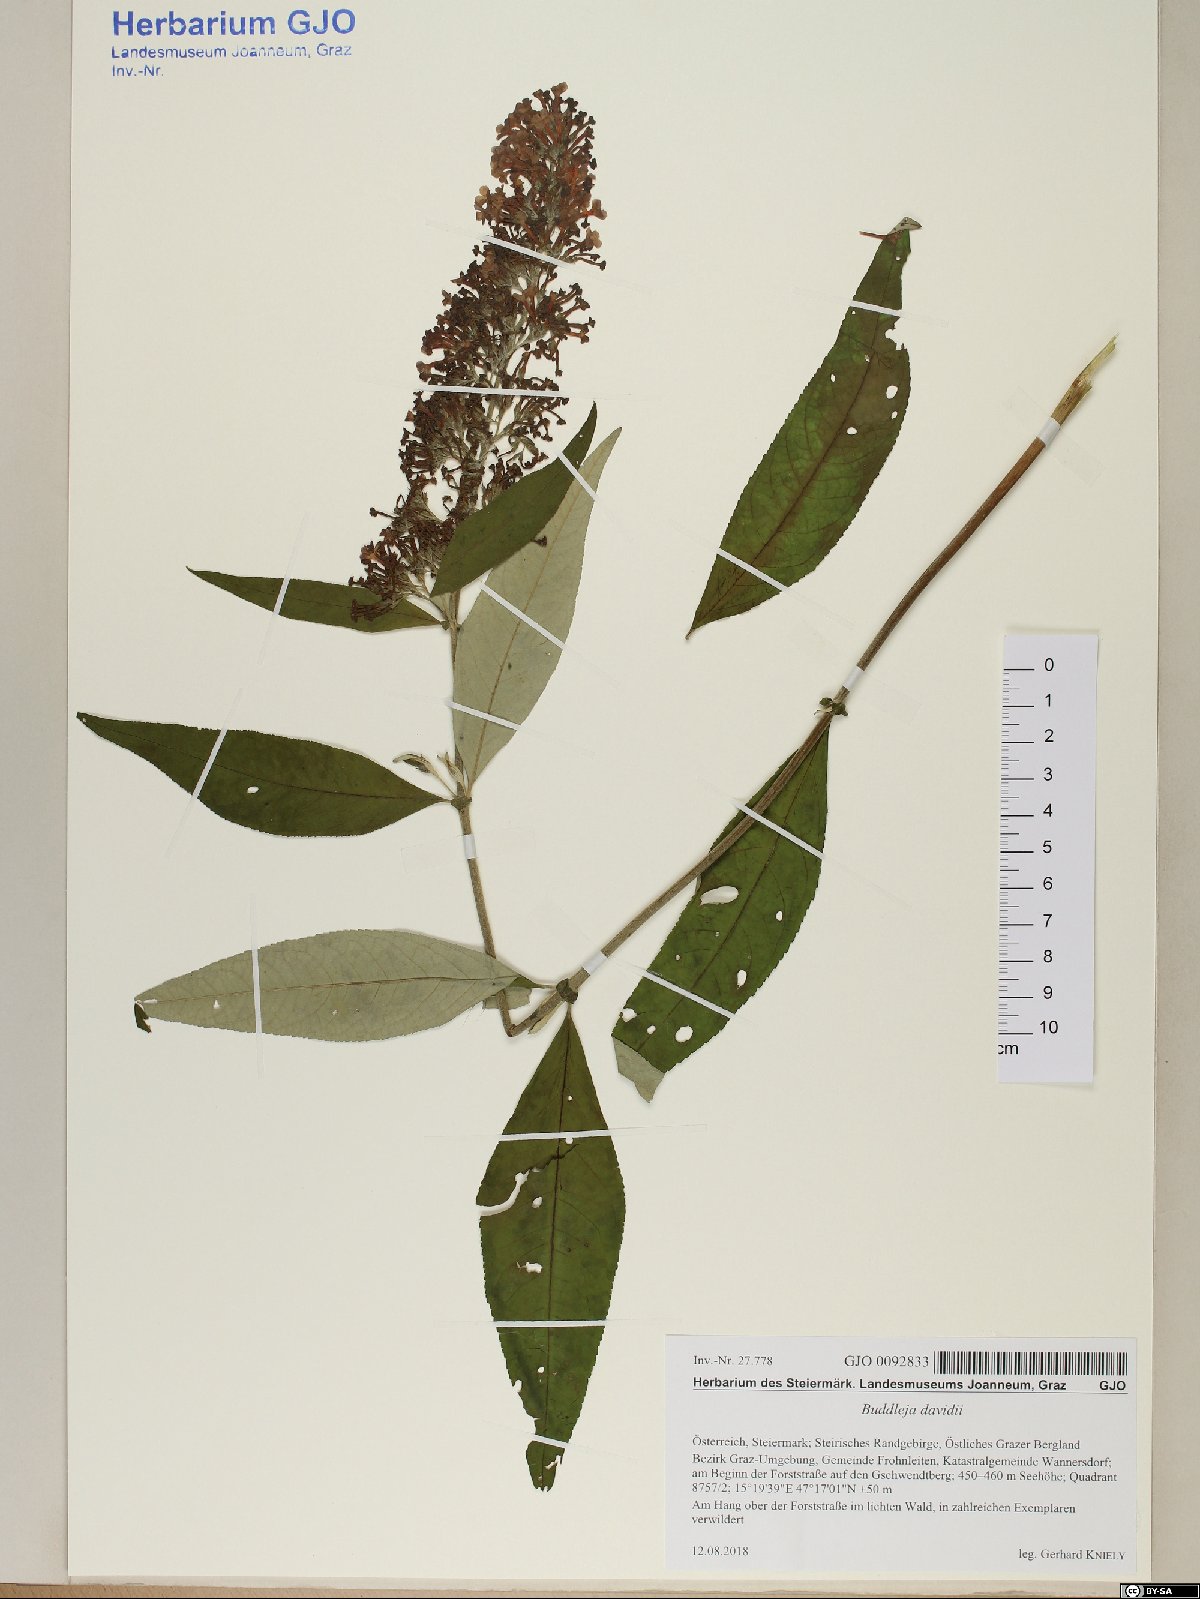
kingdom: Plantae
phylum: Tracheophyta
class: Magnoliopsida
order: Lamiales
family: Scrophulariaceae
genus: Buddleja
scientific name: Buddleja davidii
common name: Butterfly-bush
